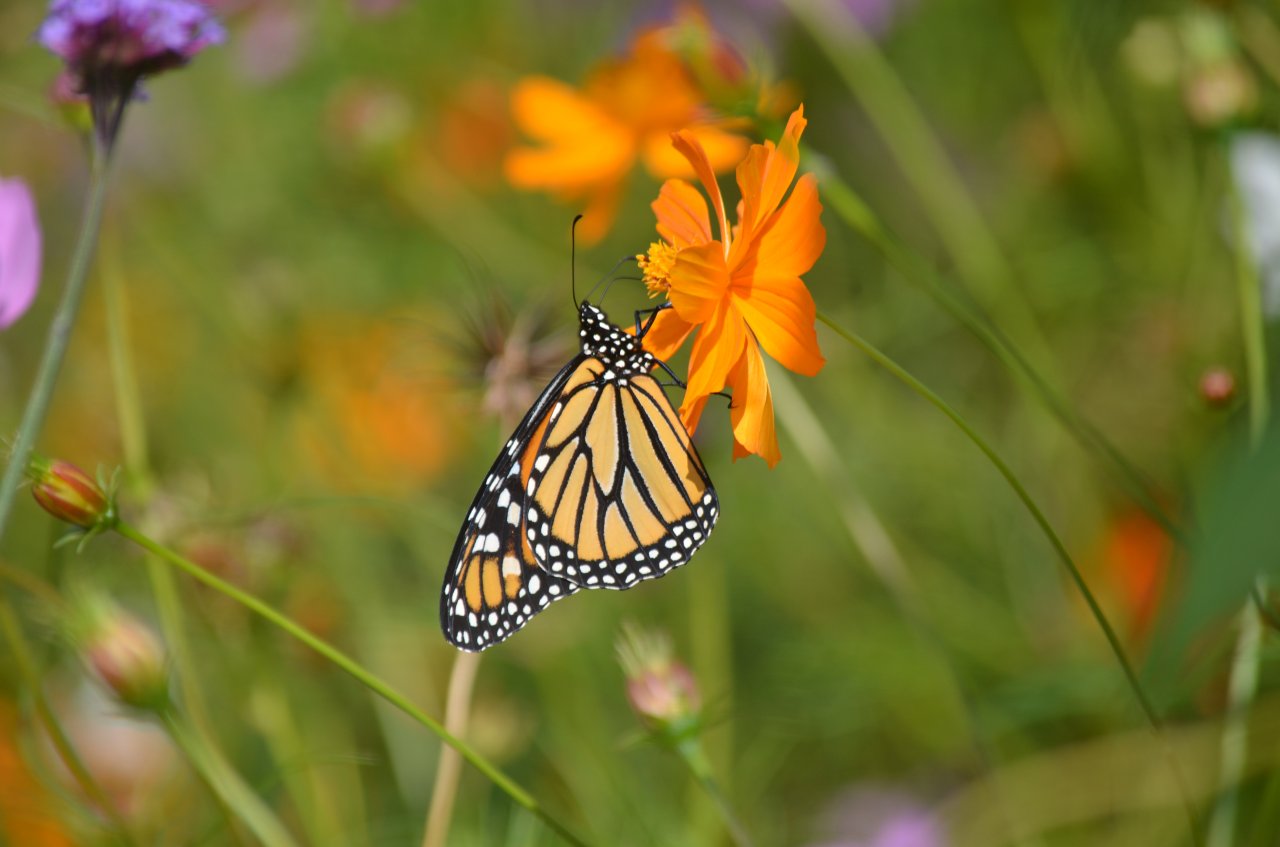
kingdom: Animalia
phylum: Arthropoda
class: Insecta
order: Lepidoptera
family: Nymphalidae
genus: Danaus
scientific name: Danaus plexippus
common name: Monarch
